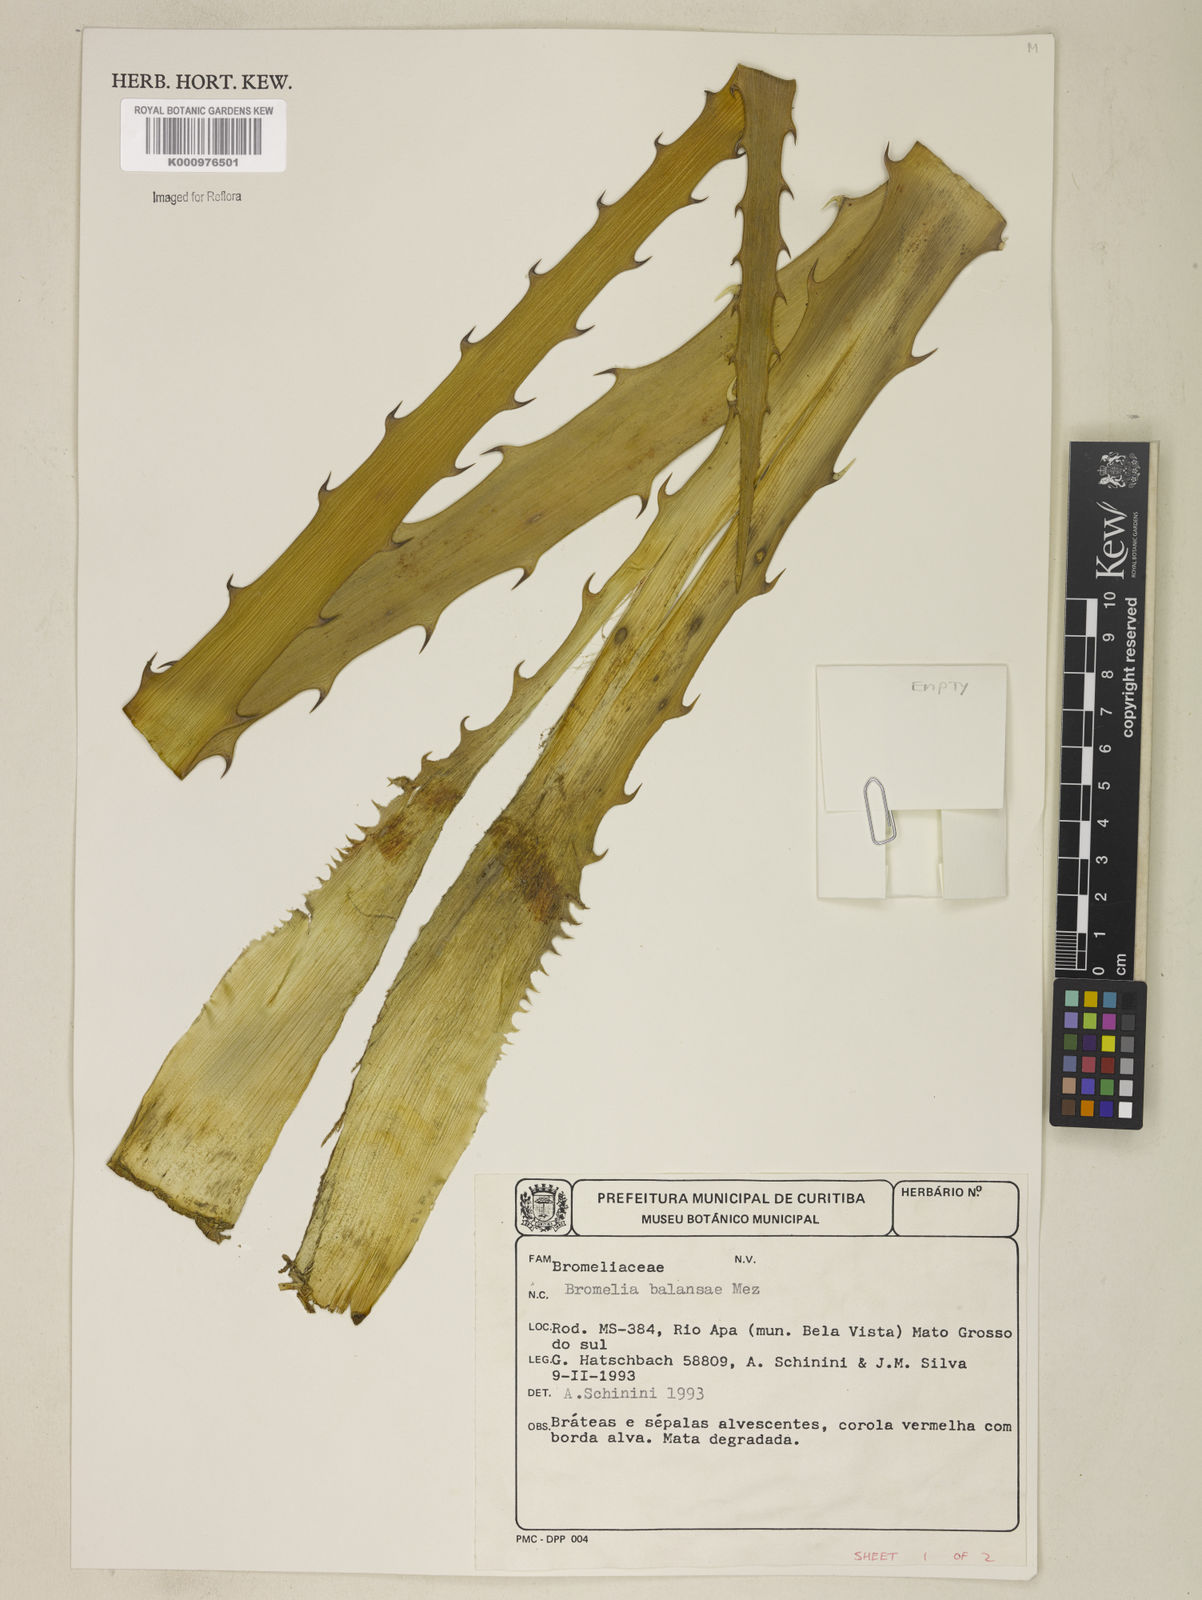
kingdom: Plantae
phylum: Tracheophyta
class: Liliopsida
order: Poales
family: Bromeliaceae
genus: Bromelia
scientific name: Bromelia balansae
